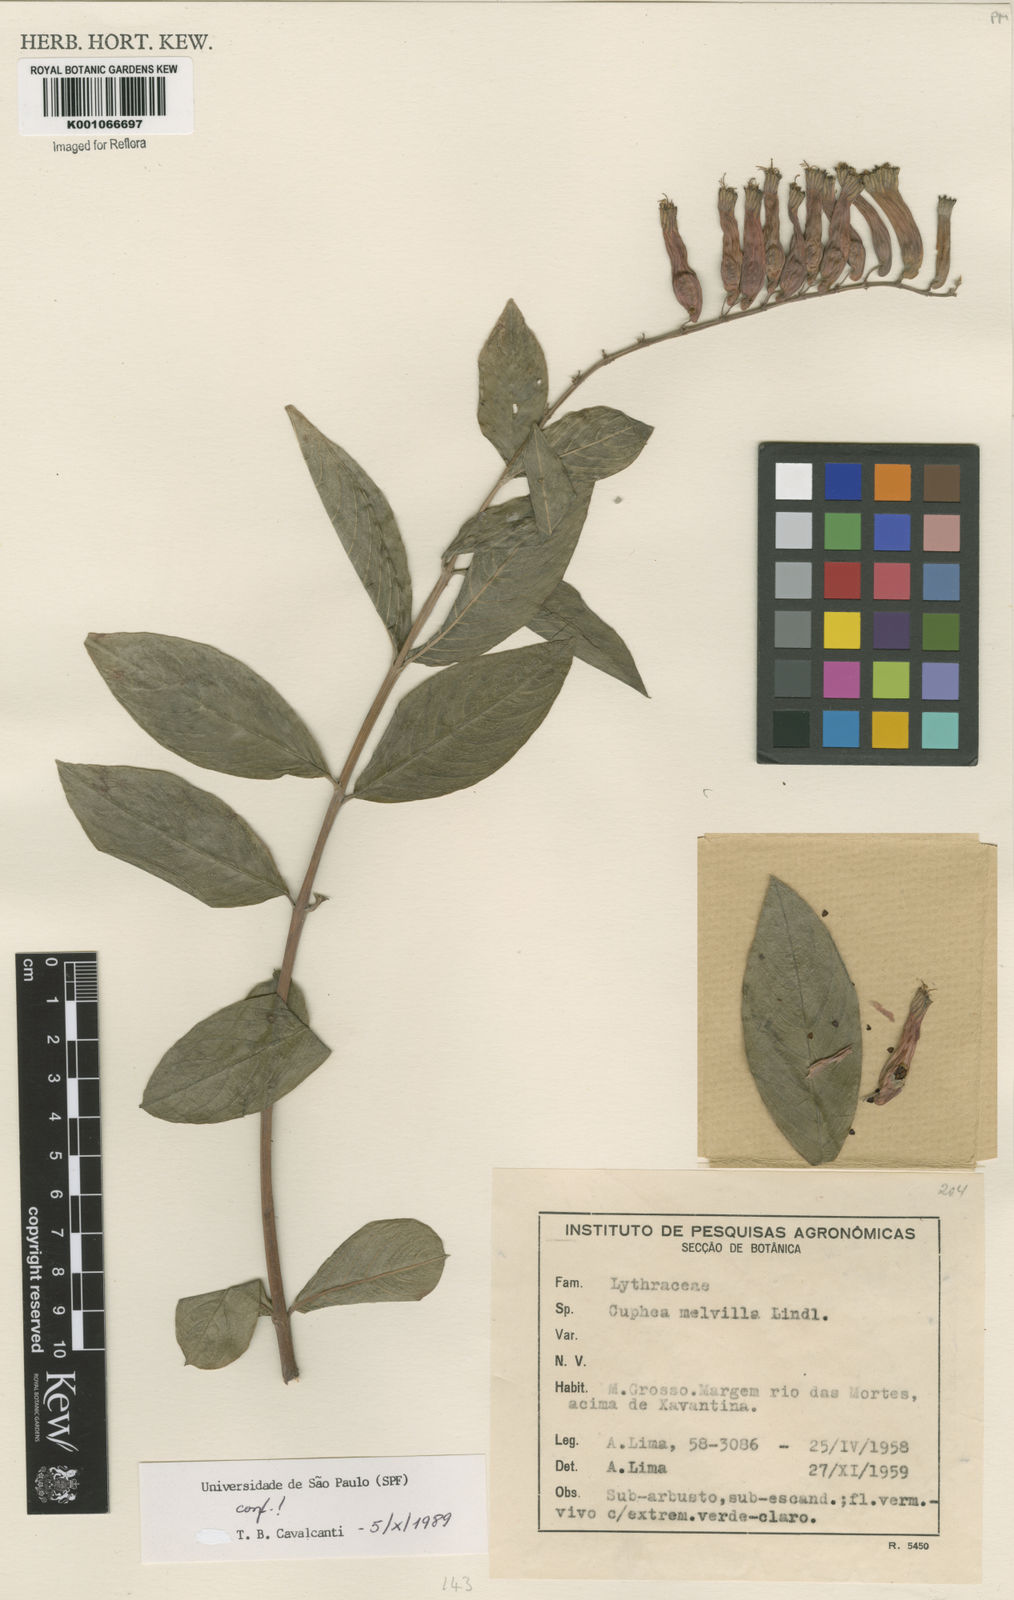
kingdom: Plantae
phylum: Tracheophyta
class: Magnoliopsida
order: Myrtales
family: Lythraceae
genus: Cuphea
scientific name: Cuphea melvilla
